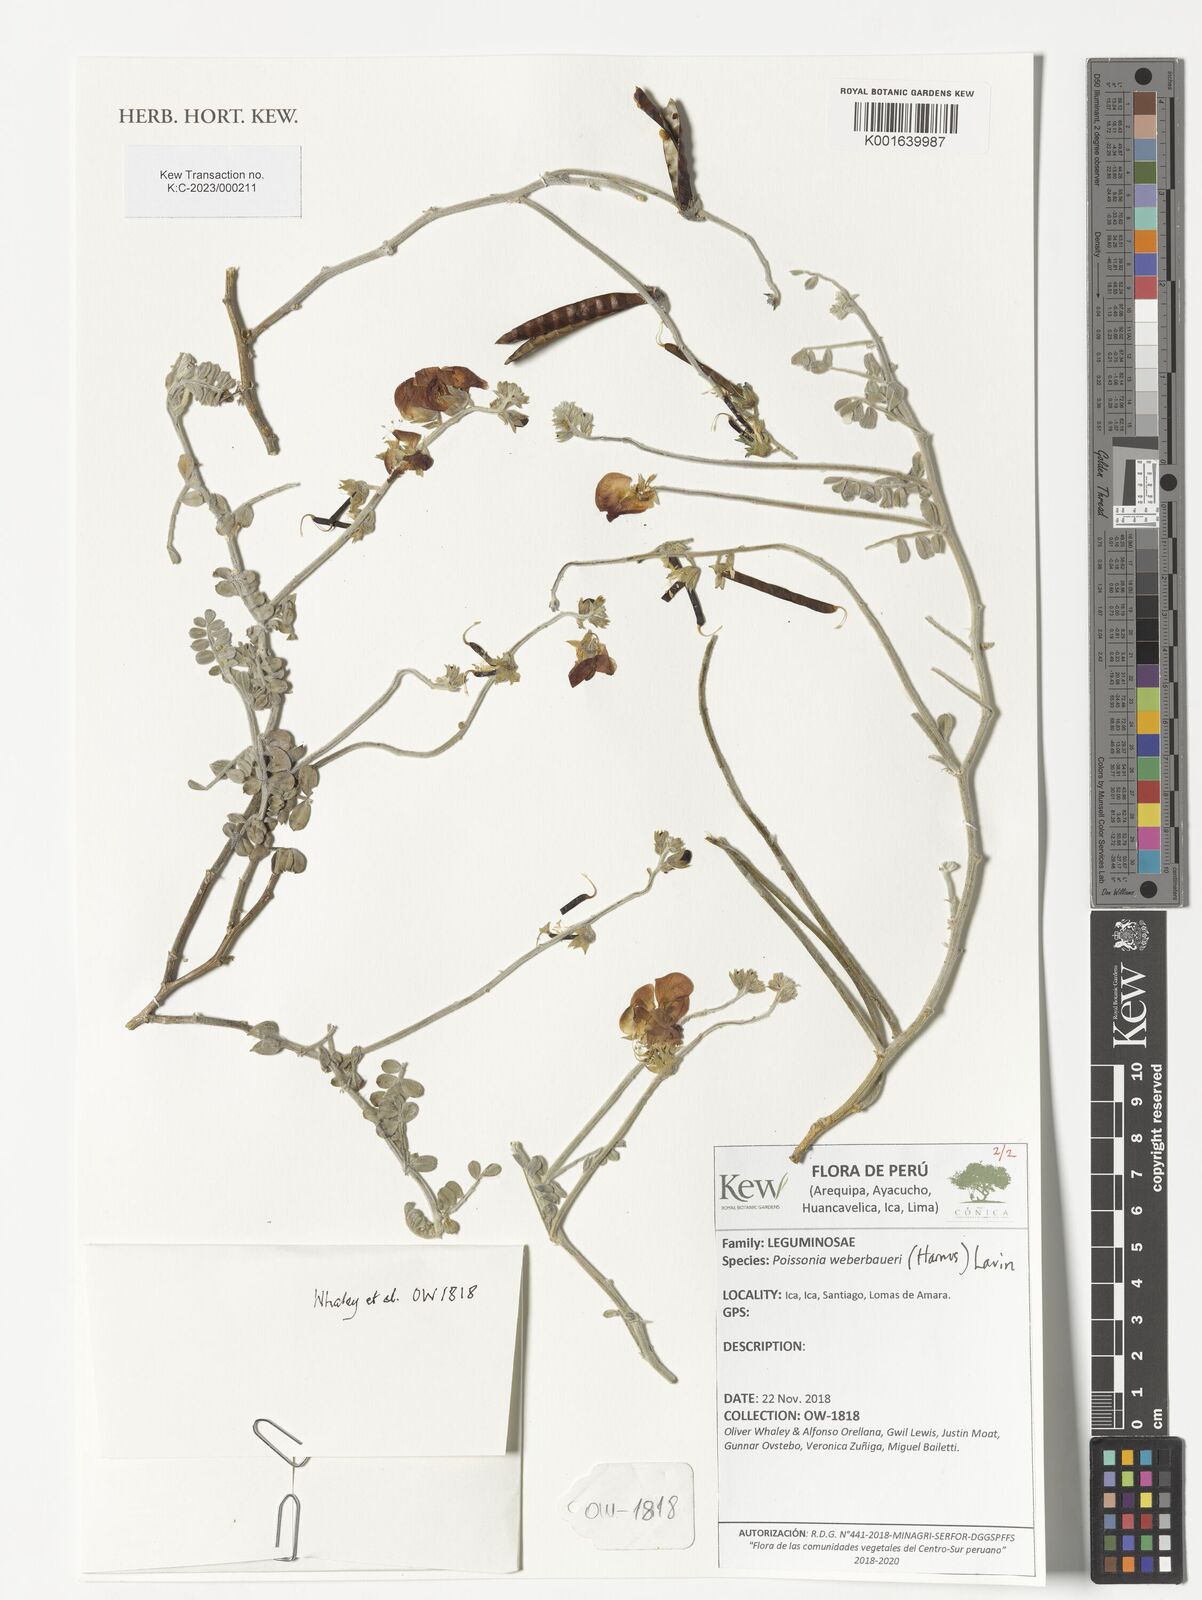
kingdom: Plantae
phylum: Tracheophyta
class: Magnoliopsida
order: Fabales
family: Fabaceae
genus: Poissonia
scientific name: Poissonia weberbaueri
